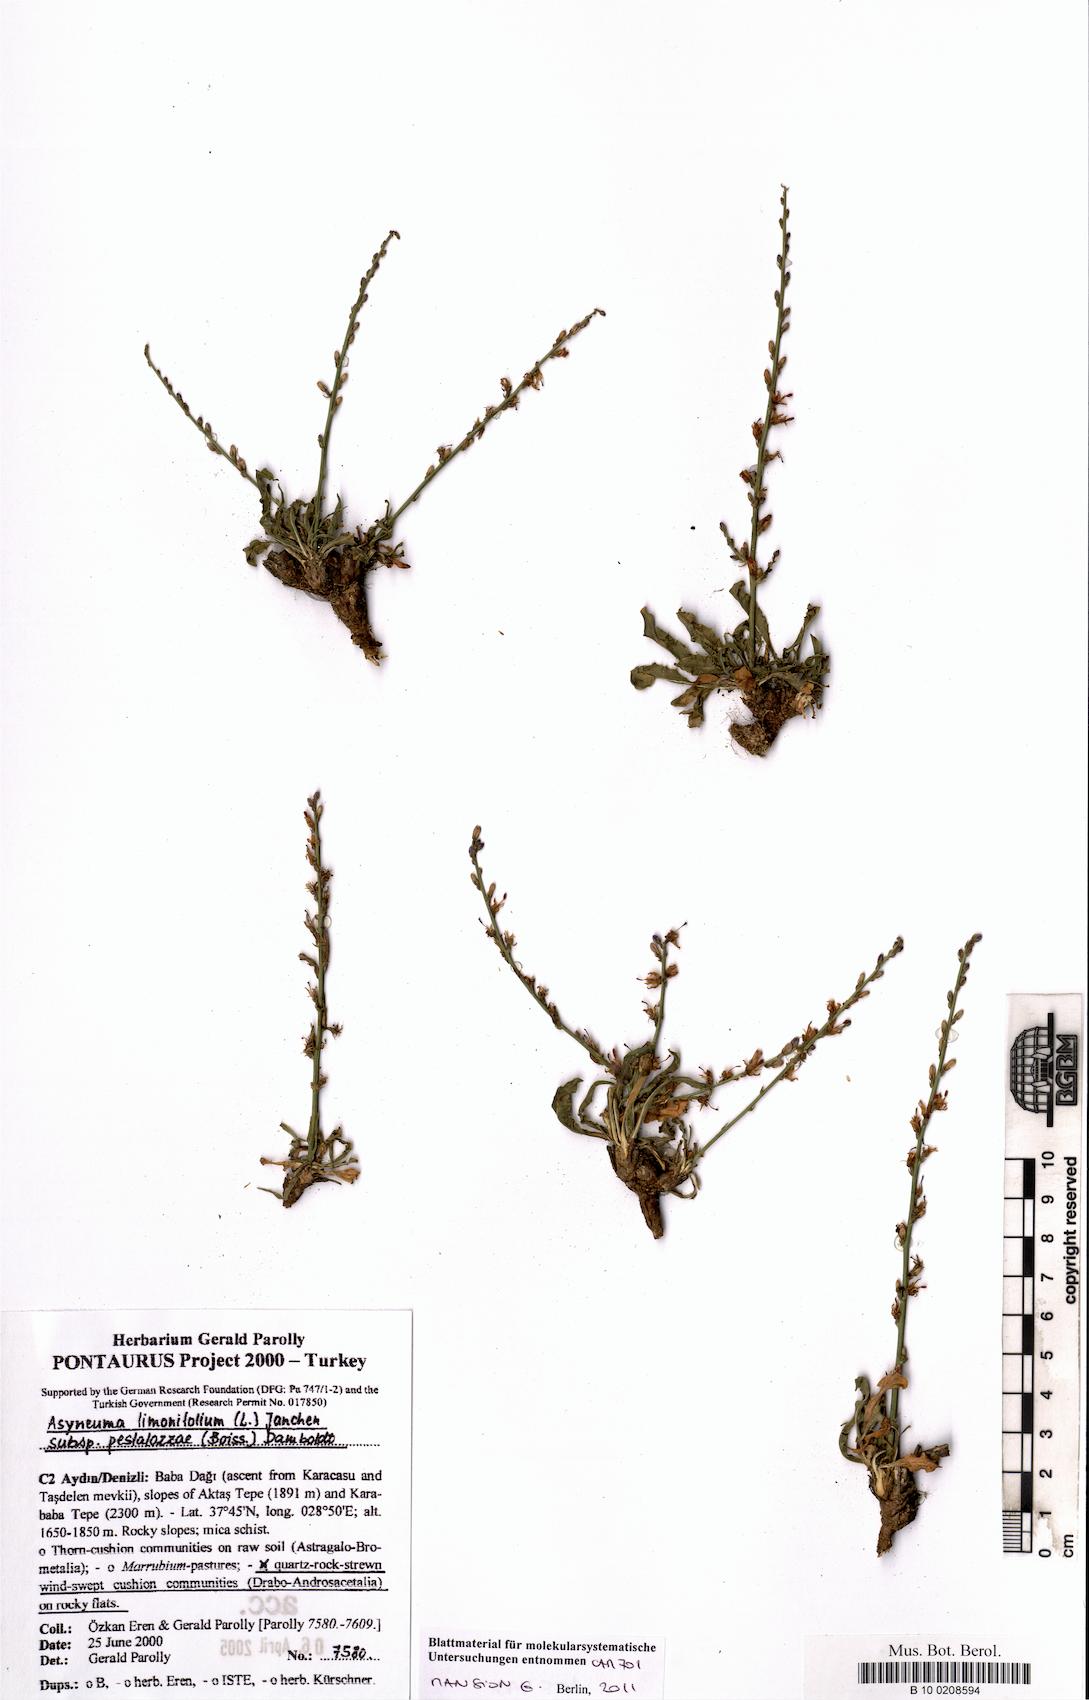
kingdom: Plantae
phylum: Tracheophyta
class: Magnoliopsida
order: Asterales
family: Campanulaceae
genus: Asyneuma
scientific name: Asyneuma limonifolium
